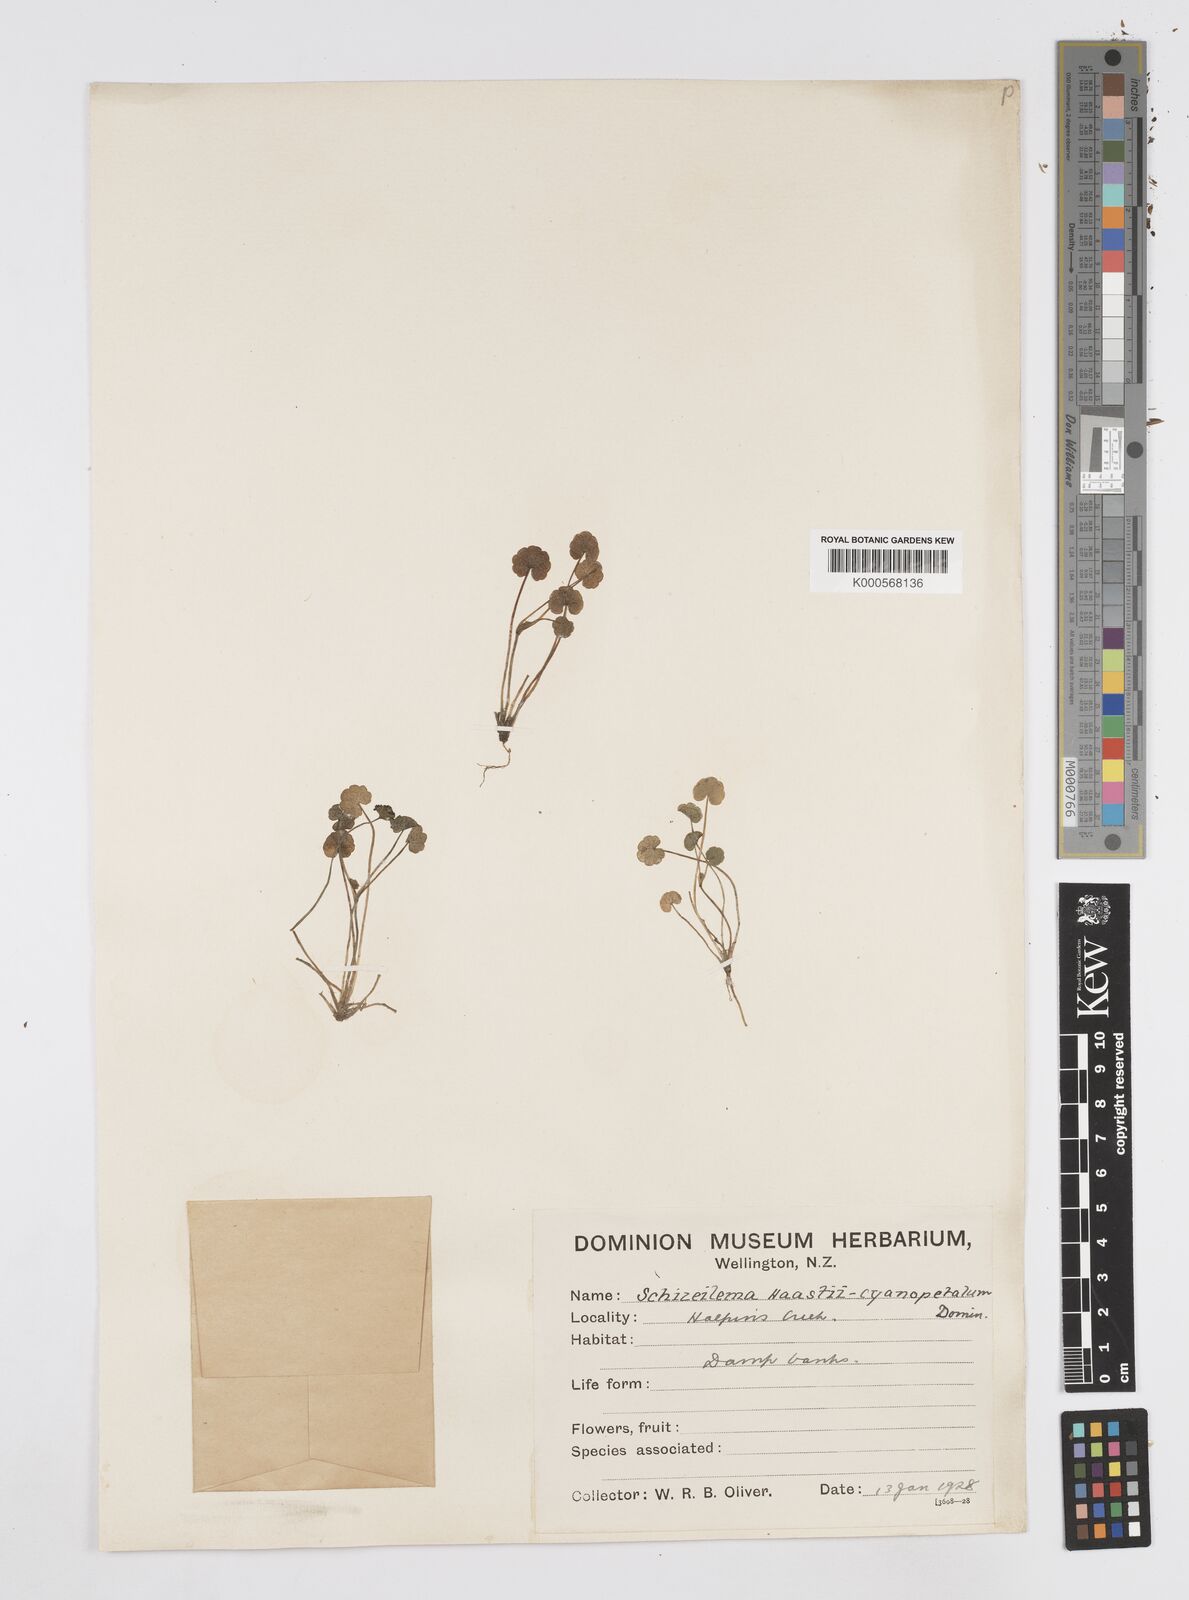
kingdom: Plantae
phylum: Tracheophyta
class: Magnoliopsida
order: Apiales
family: Apiaceae
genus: Azorella
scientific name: Azorella haastii
